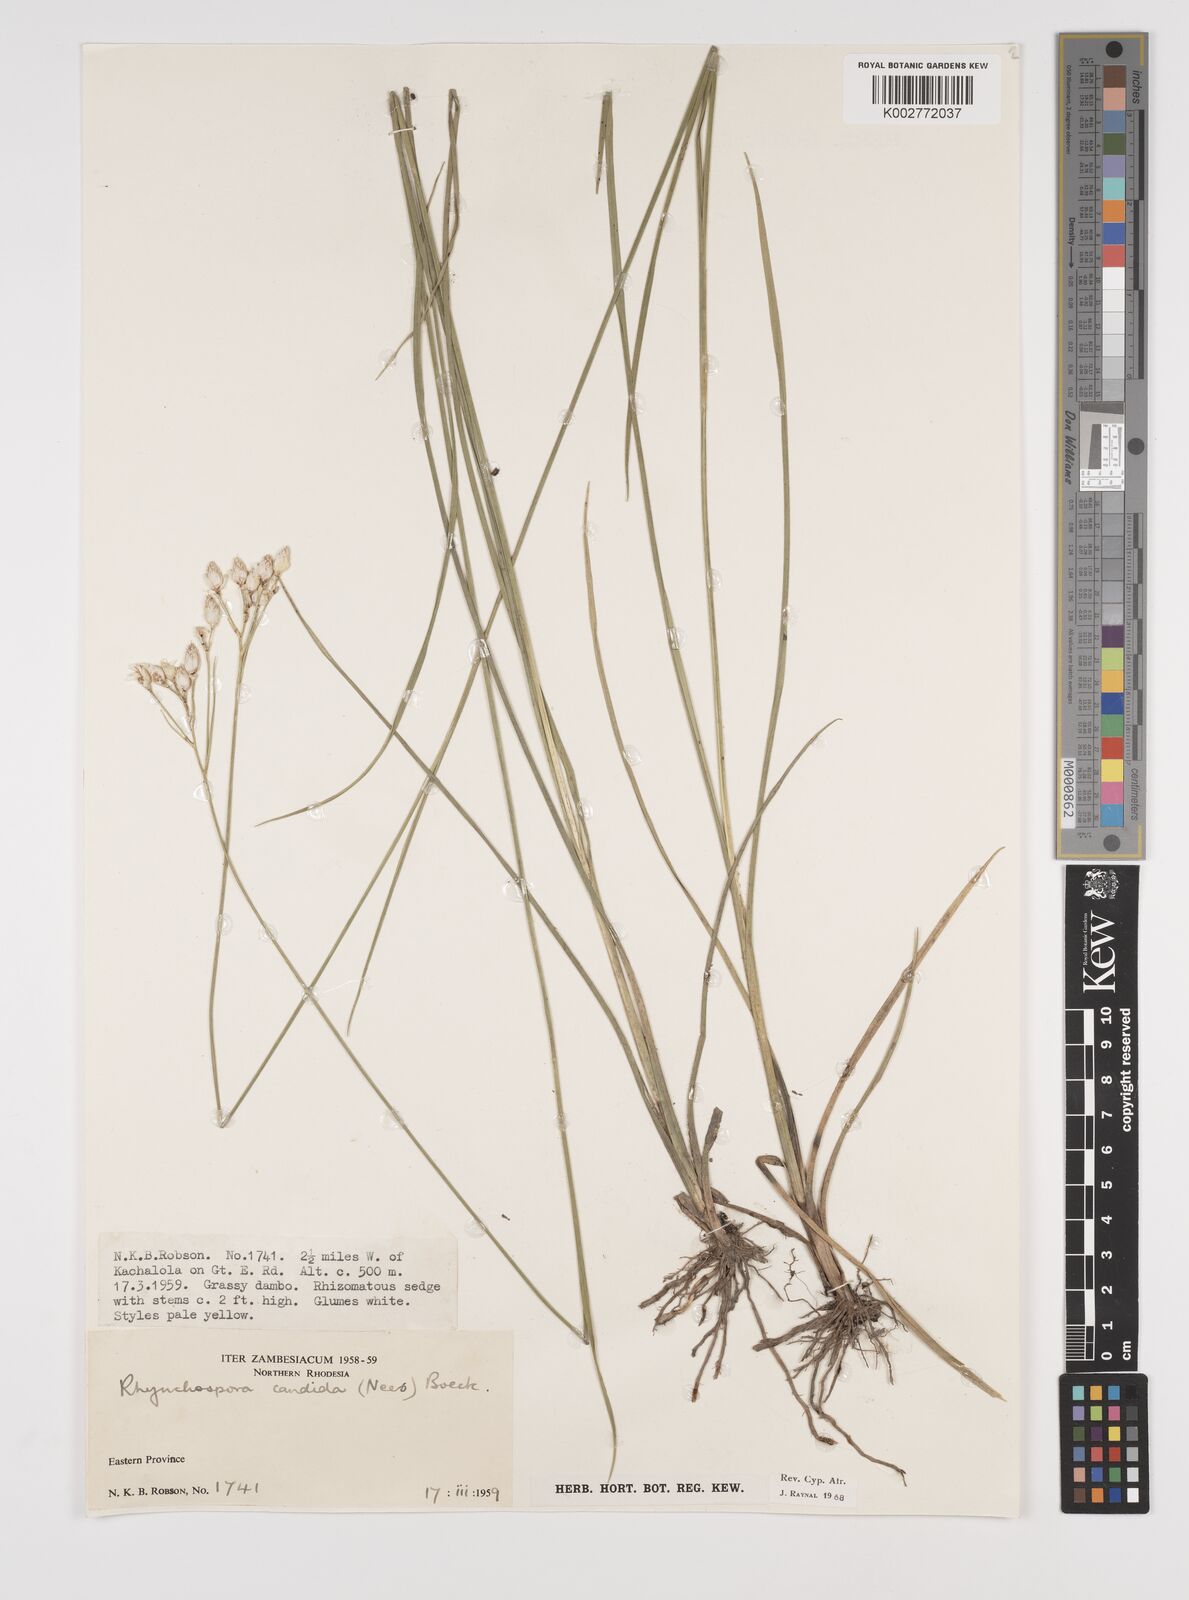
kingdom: Plantae
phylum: Tracheophyta
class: Liliopsida
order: Poales
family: Cyperaceae
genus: Rhynchospora
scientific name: Rhynchospora candida
